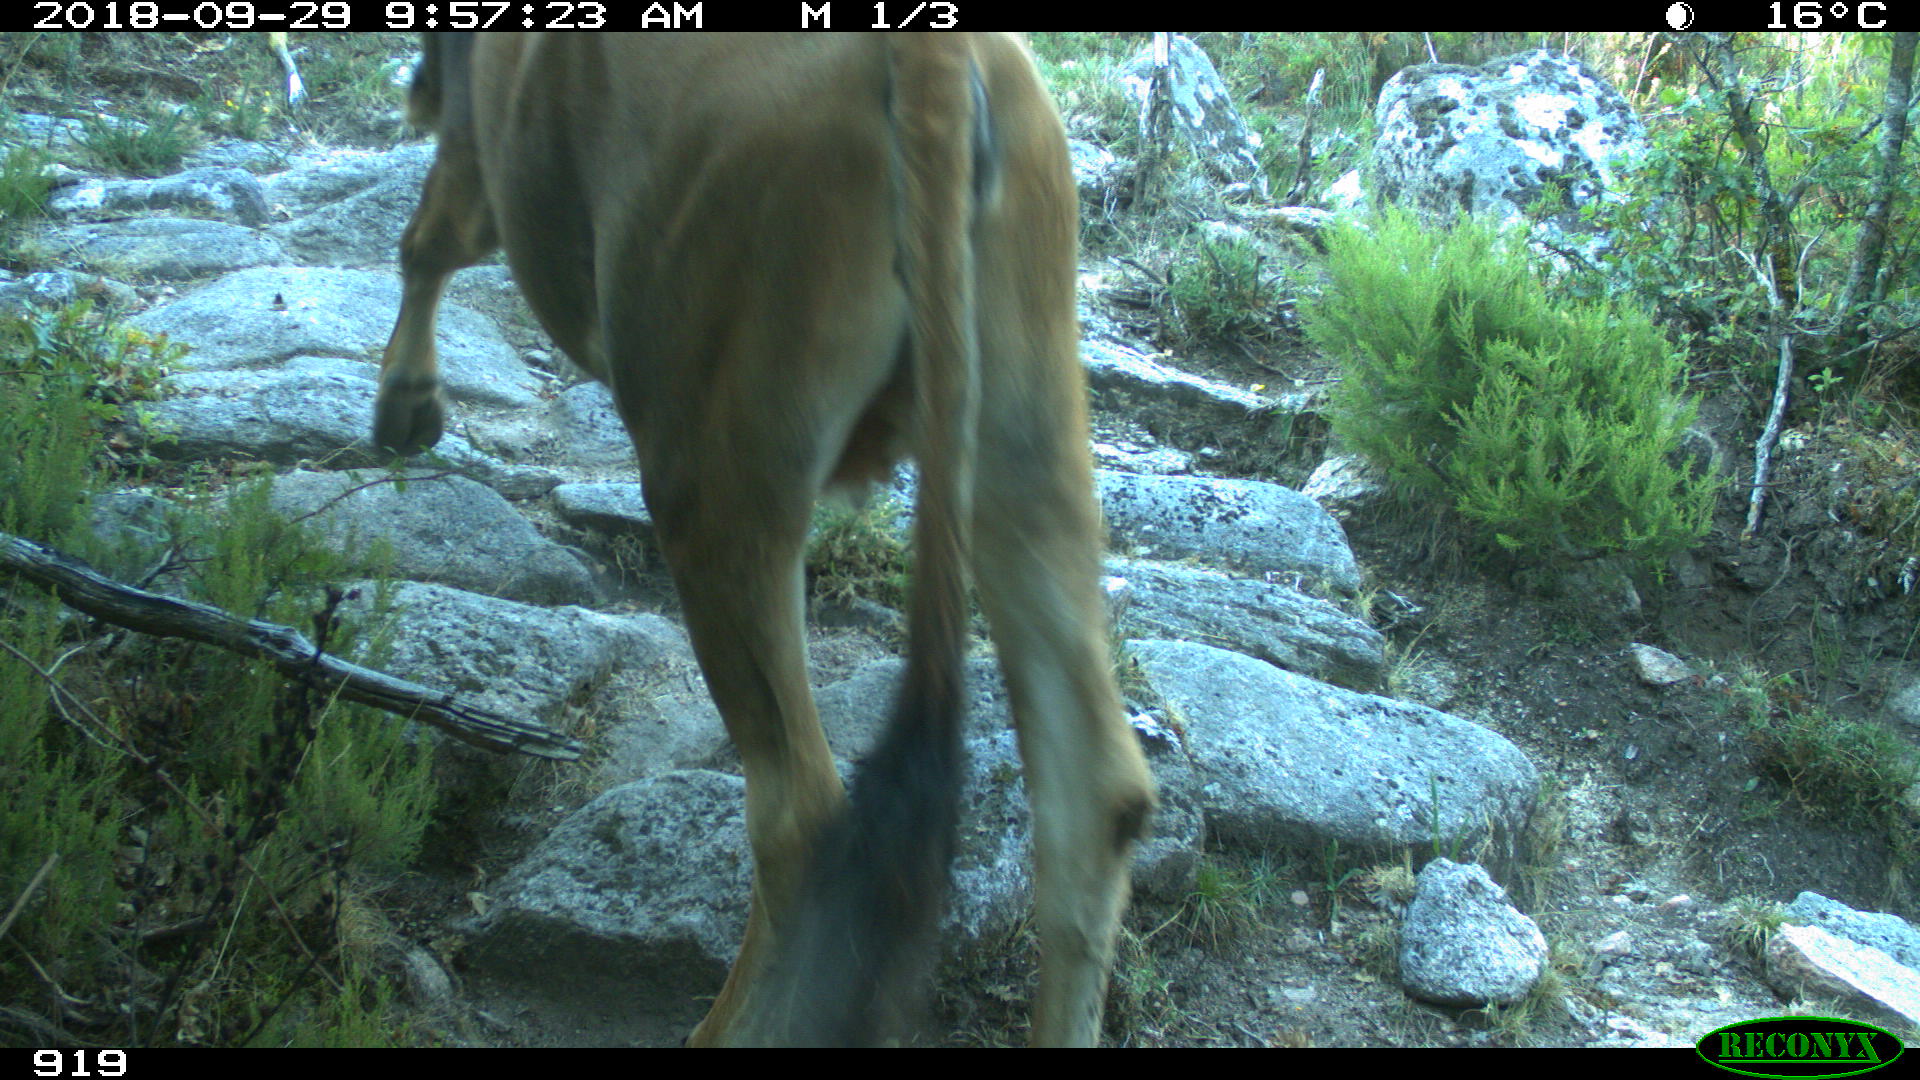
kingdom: Animalia
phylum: Chordata
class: Mammalia
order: Artiodactyla
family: Bovidae
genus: Bos
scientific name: Bos taurus
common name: Domesticated cattle
